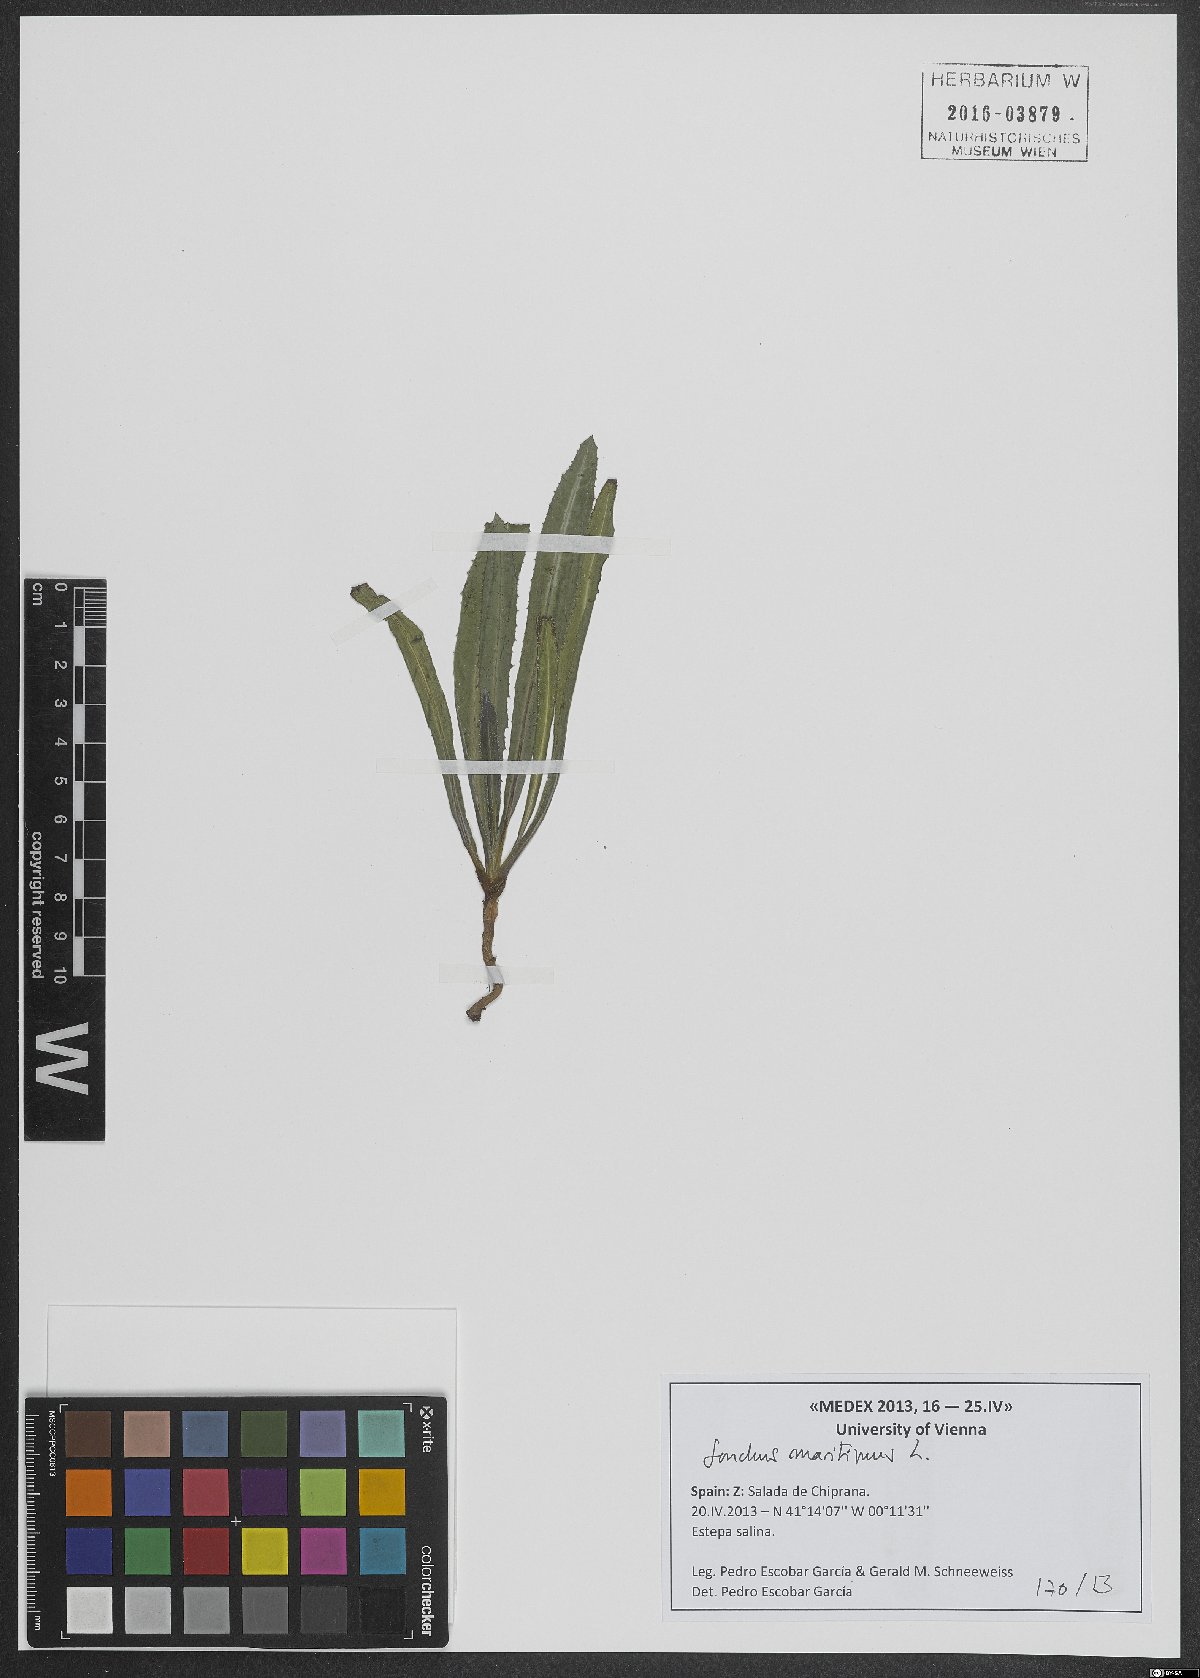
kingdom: Plantae
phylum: Tracheophyta
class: Magnoliopsida
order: Asterales
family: Asteraceae
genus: Sonchus
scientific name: Sonchus maritimus
